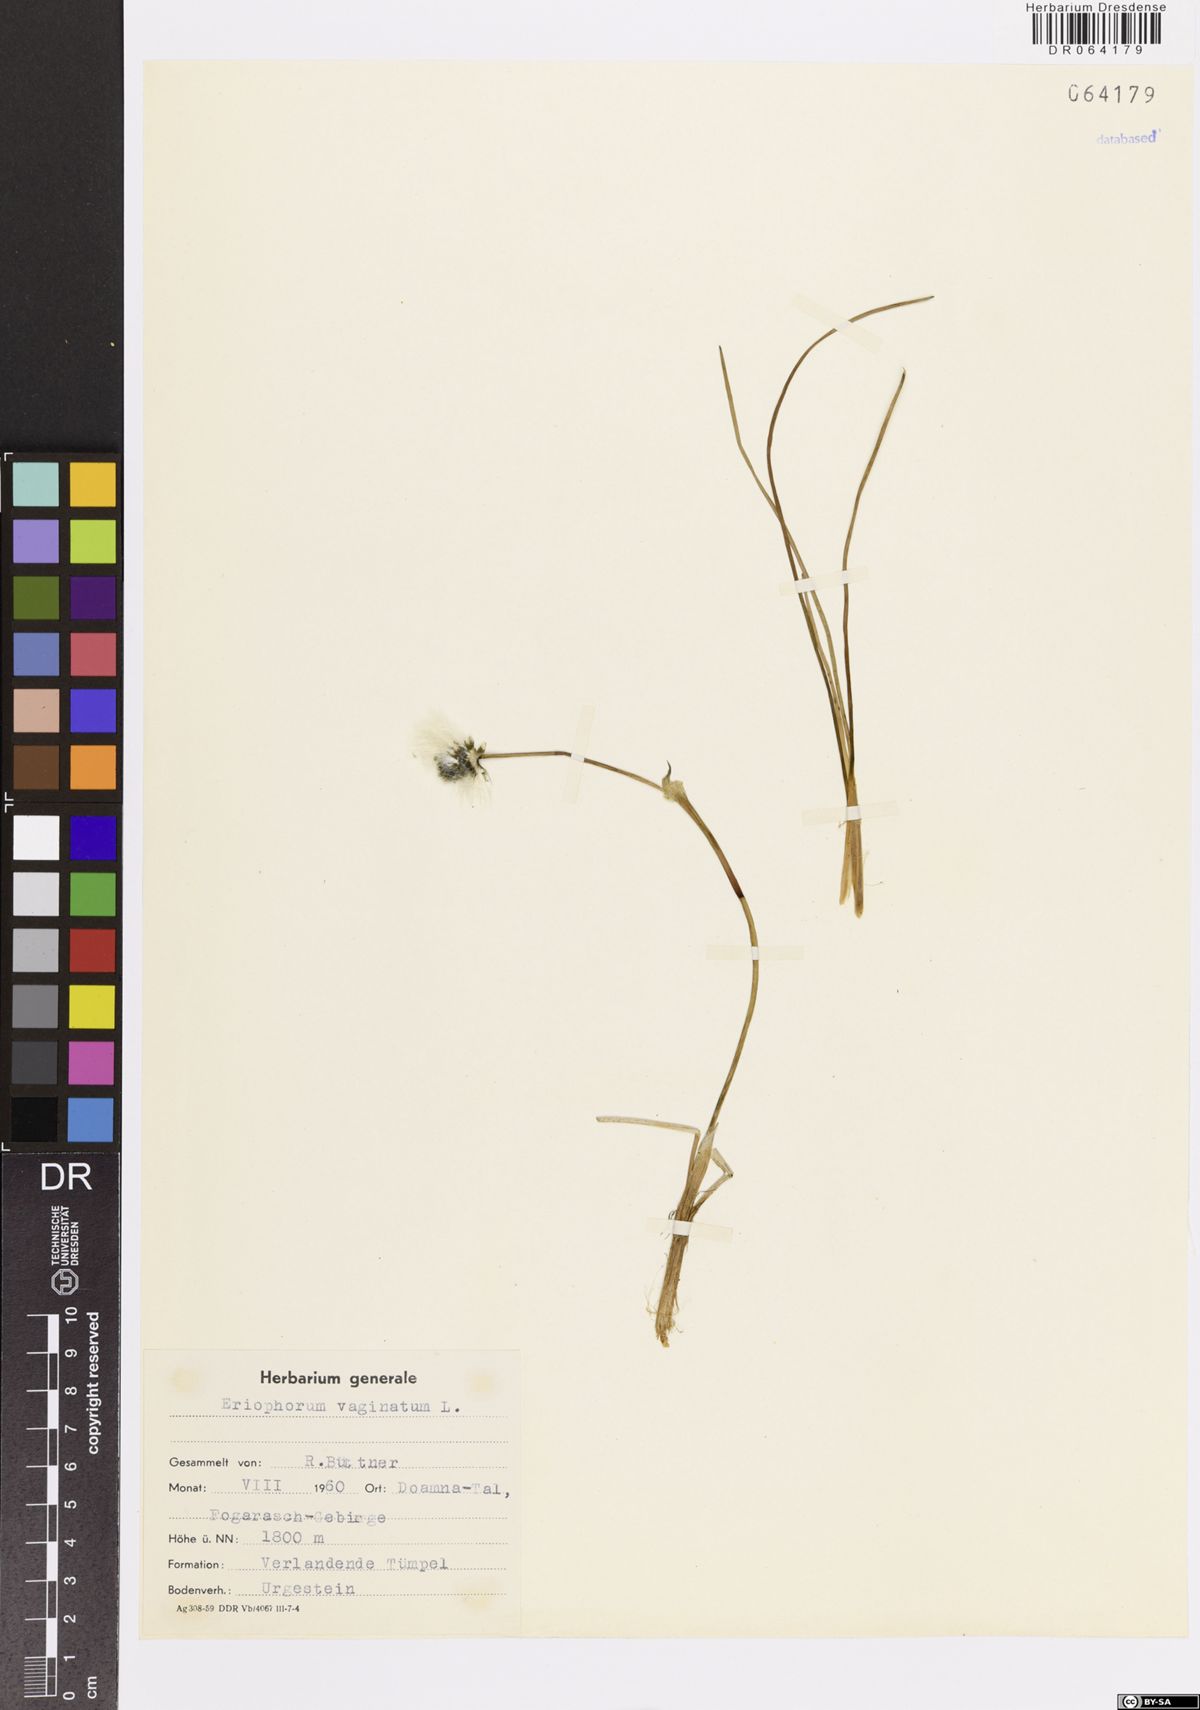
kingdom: Plantae
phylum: Tracheophyta
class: Liliopsida
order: Poales
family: Cyperaceae
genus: Eriophorum
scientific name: Eriophorum vaginatum
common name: Hare's-tail cottongrass
